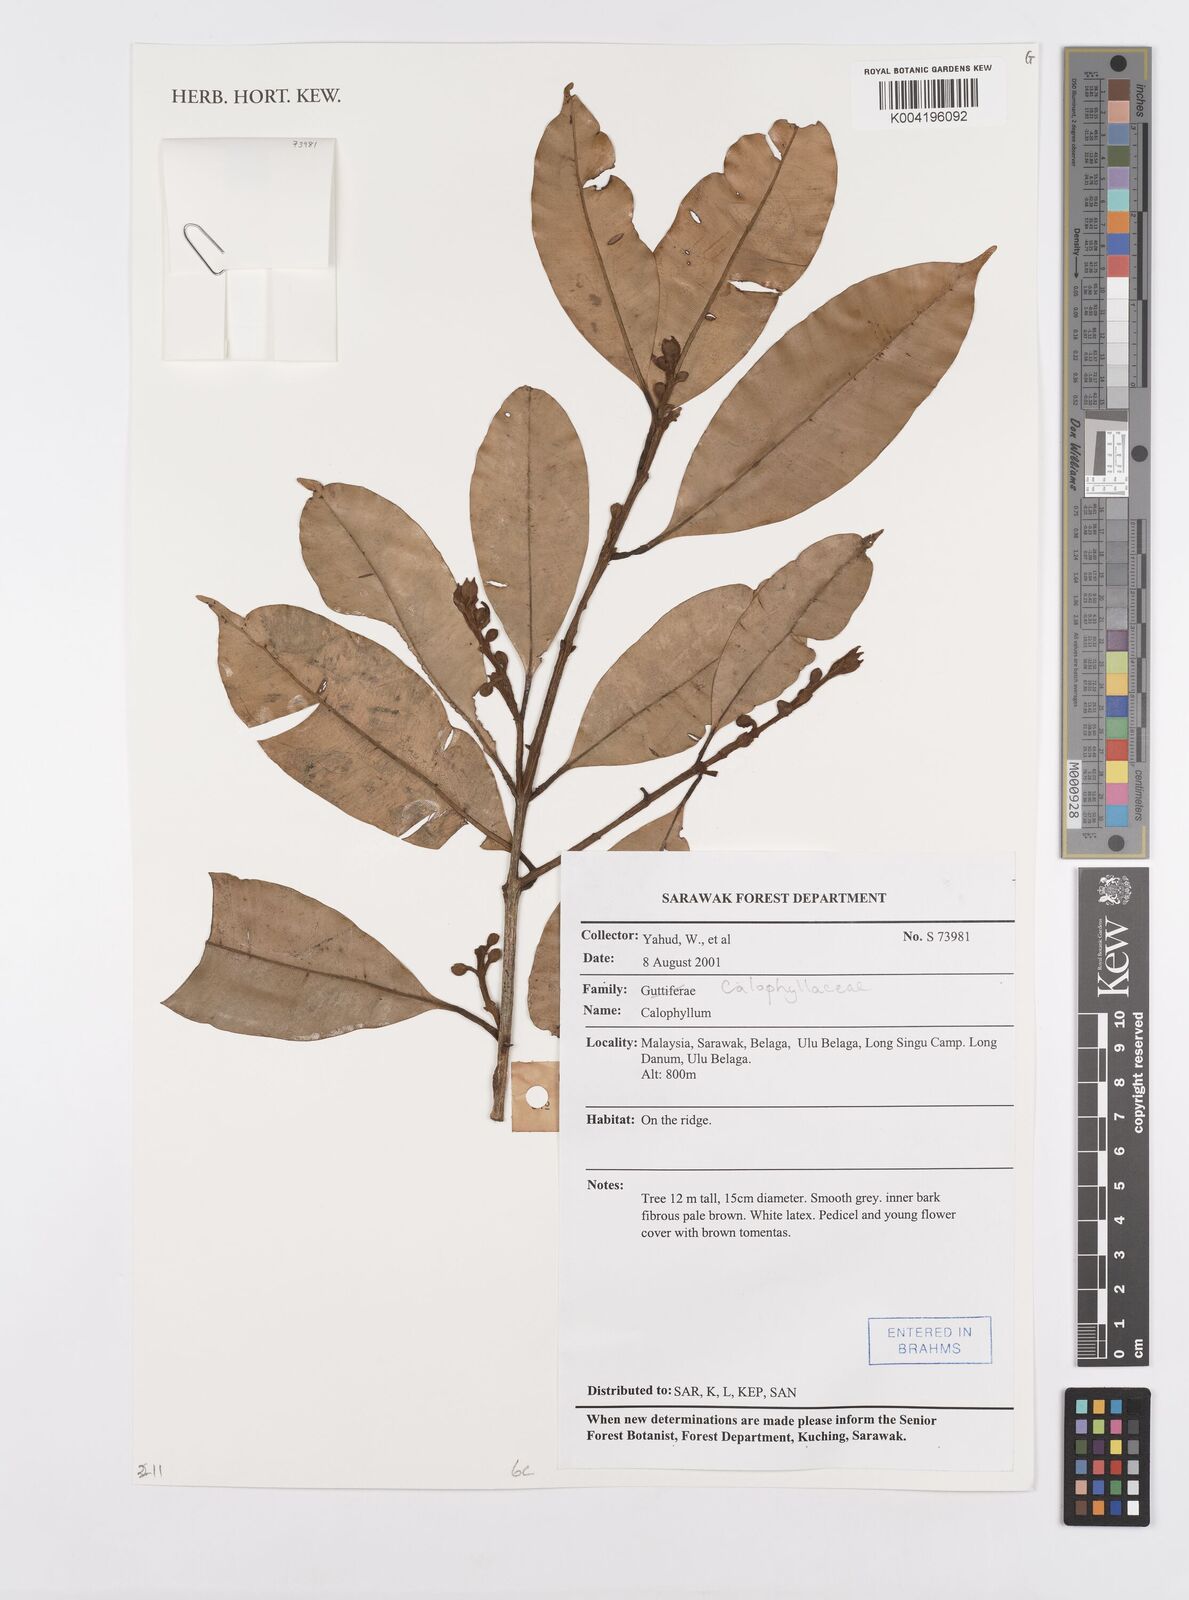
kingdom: Plantae
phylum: Tracheophyta
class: Magnoliopsida
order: Malpighiales
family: Calophyllaceae
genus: Calophyllum
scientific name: Calophyllum
